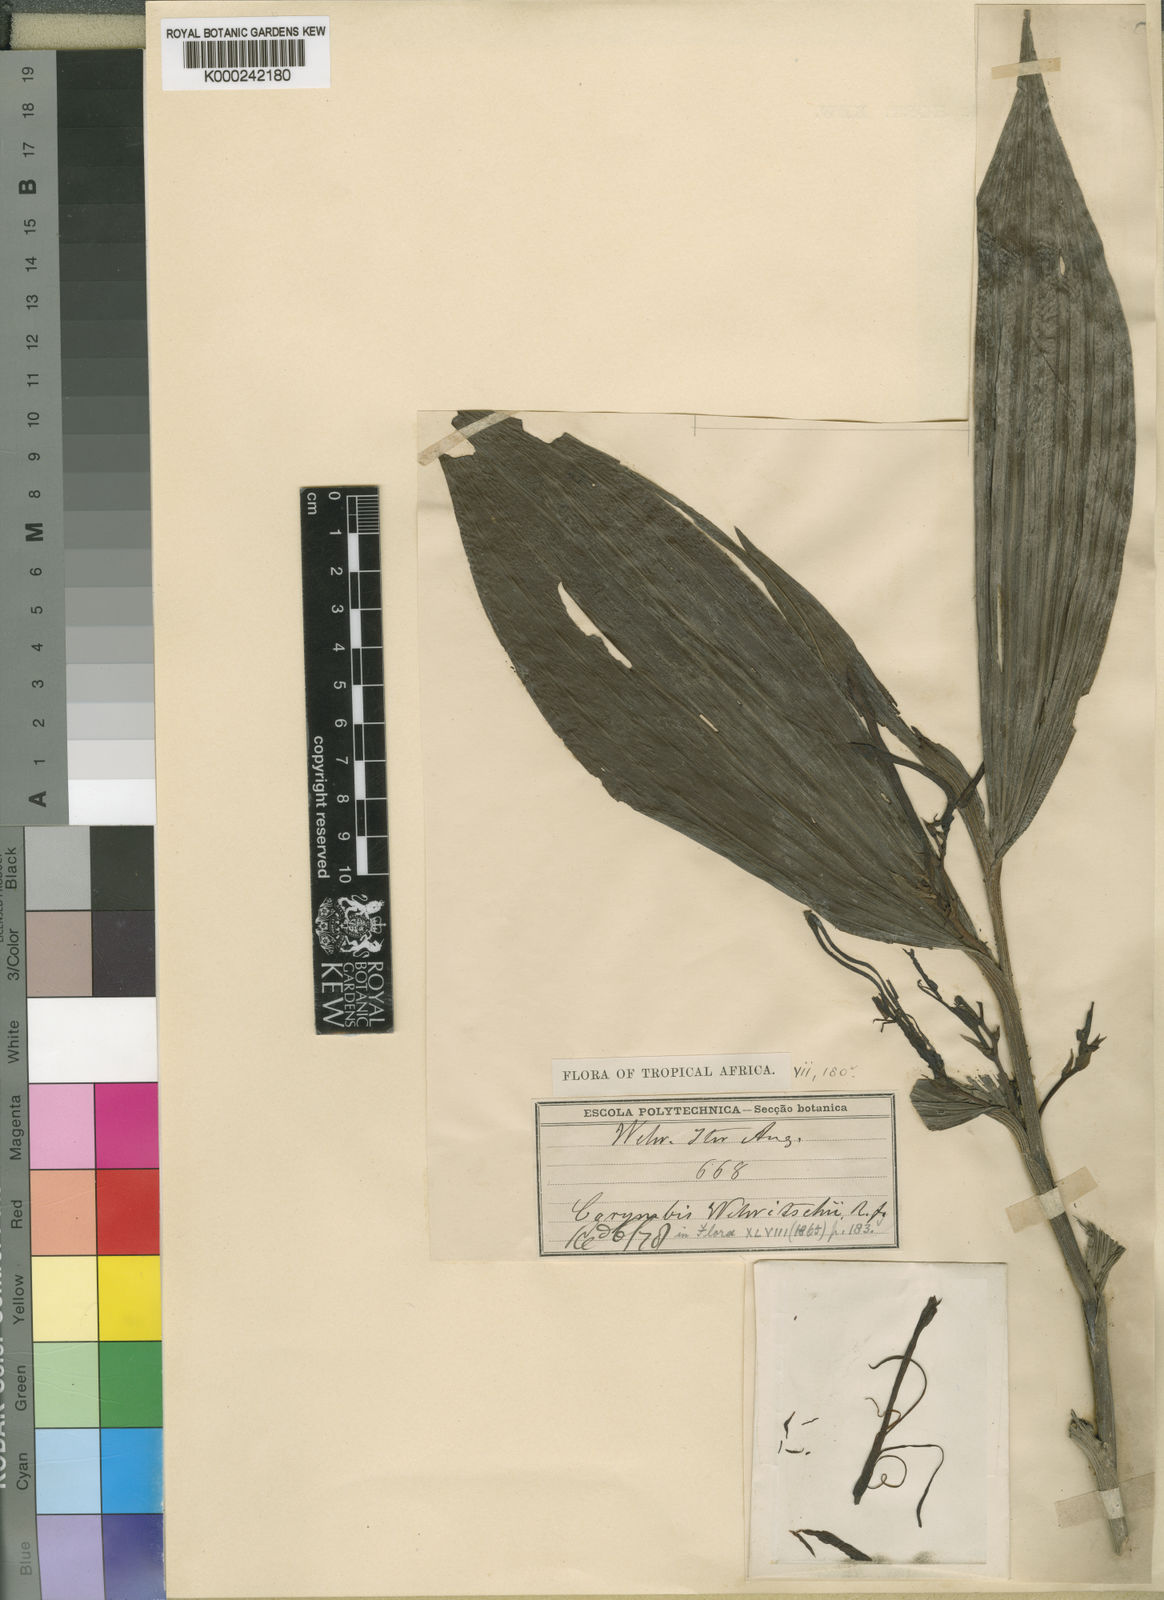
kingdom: Plantae
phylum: Tracheophyta
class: Liliopsida
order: Asparagales
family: Orchidaceae
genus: Corymborkis
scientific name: Corymborkis corymbis
